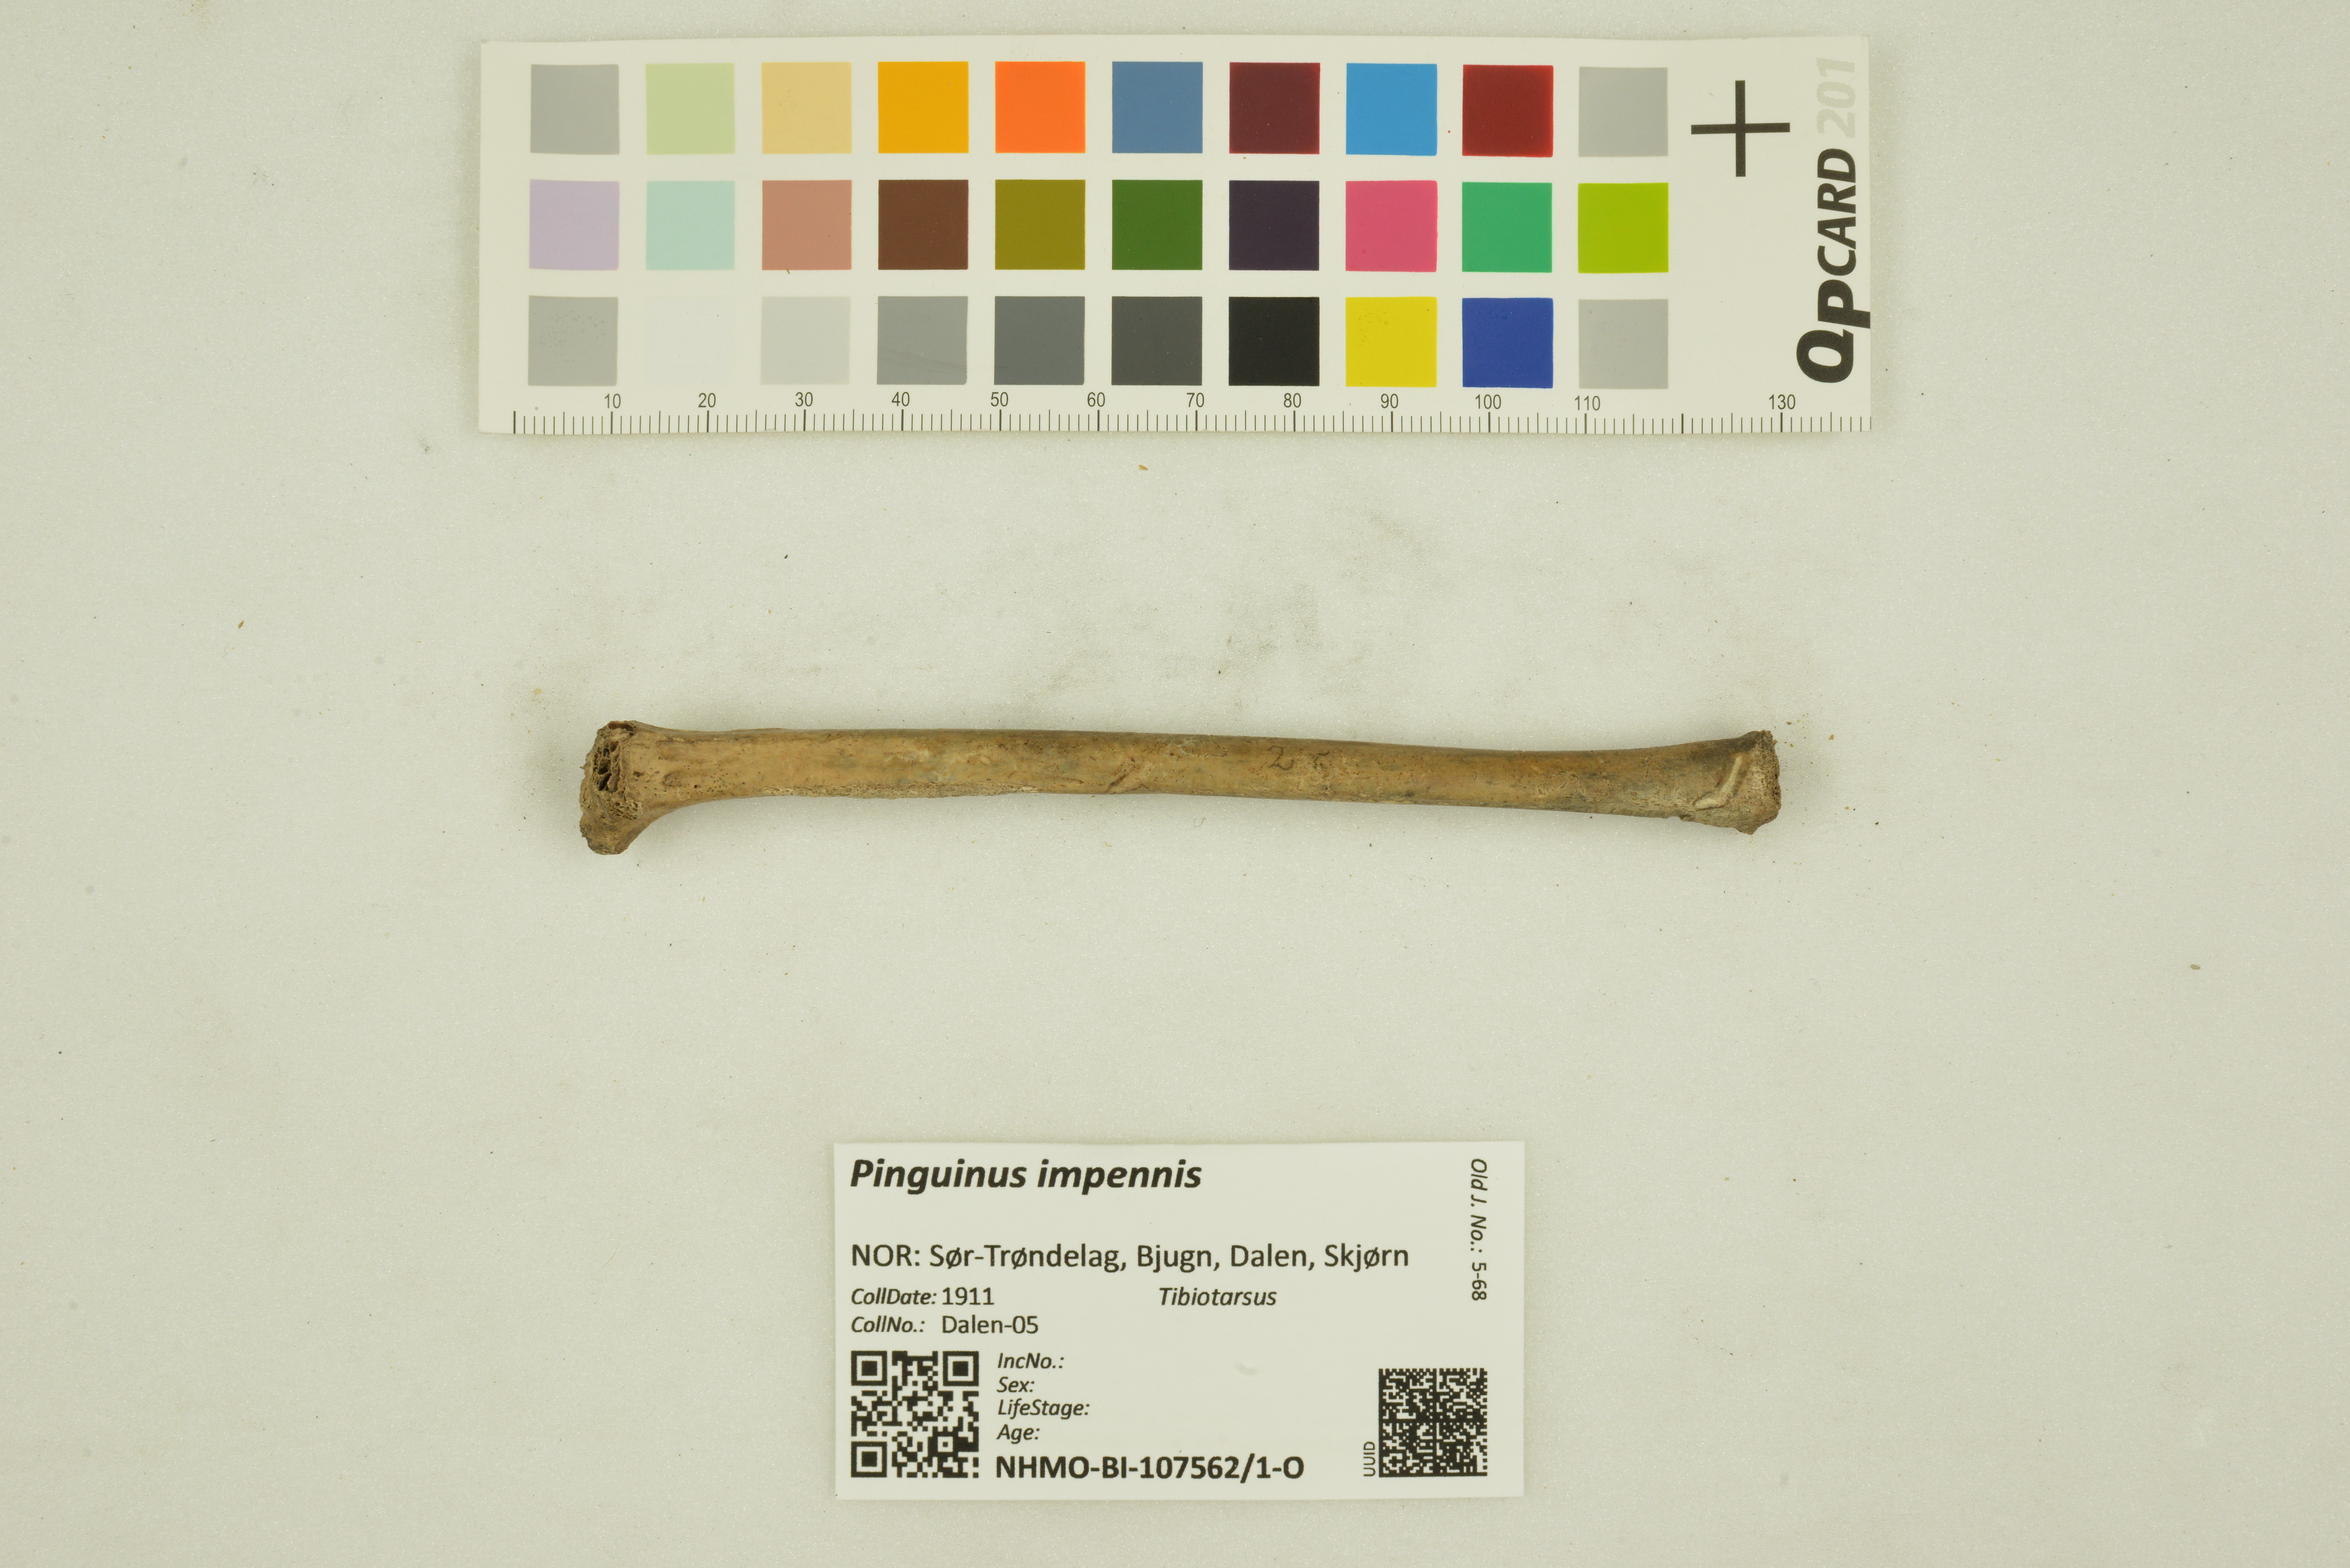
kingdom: Animalia
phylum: Chordata
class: Aves
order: Charadriiformes
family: Alcidae
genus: Pinguinus
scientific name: Pinguinus impennis
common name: Great auk
